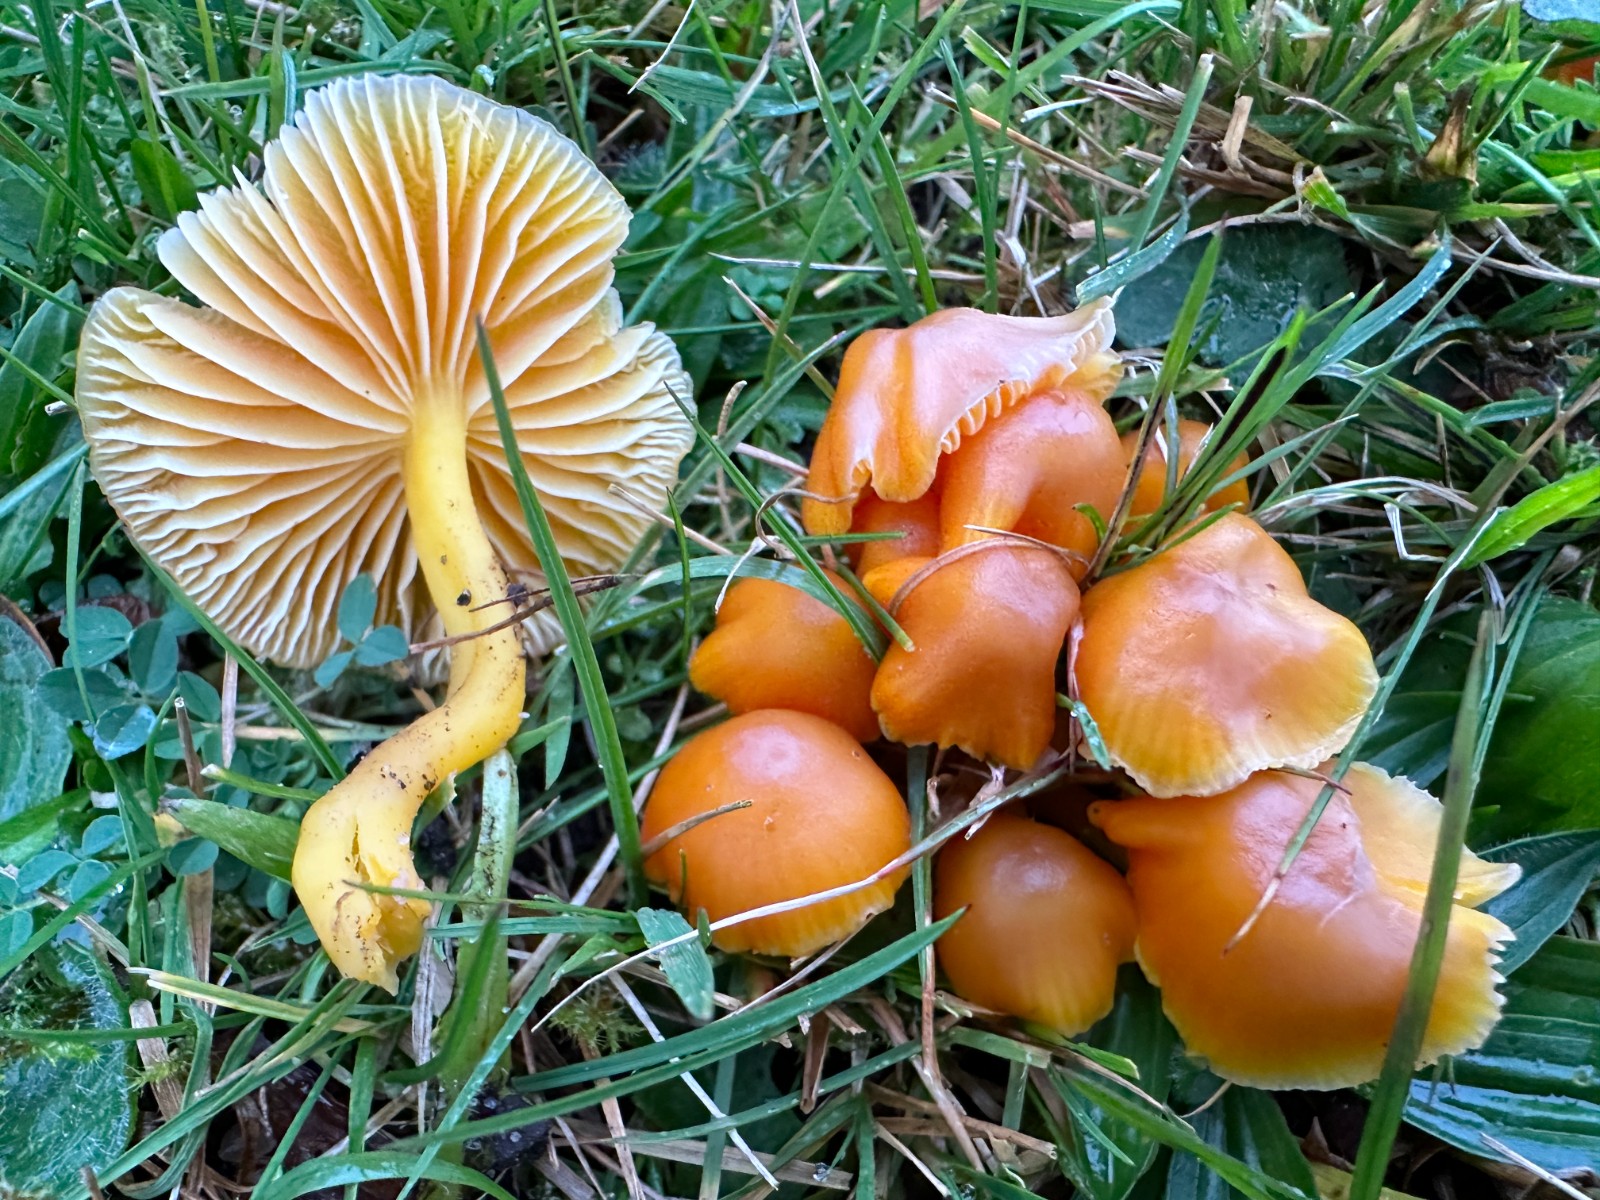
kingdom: Fungi
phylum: Basidiomycota
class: Agaricomycetes
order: Agaricales
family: Hygrophoraceae
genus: Hygrocybe
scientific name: Hygrocybe reidii
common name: honning-vokshat
